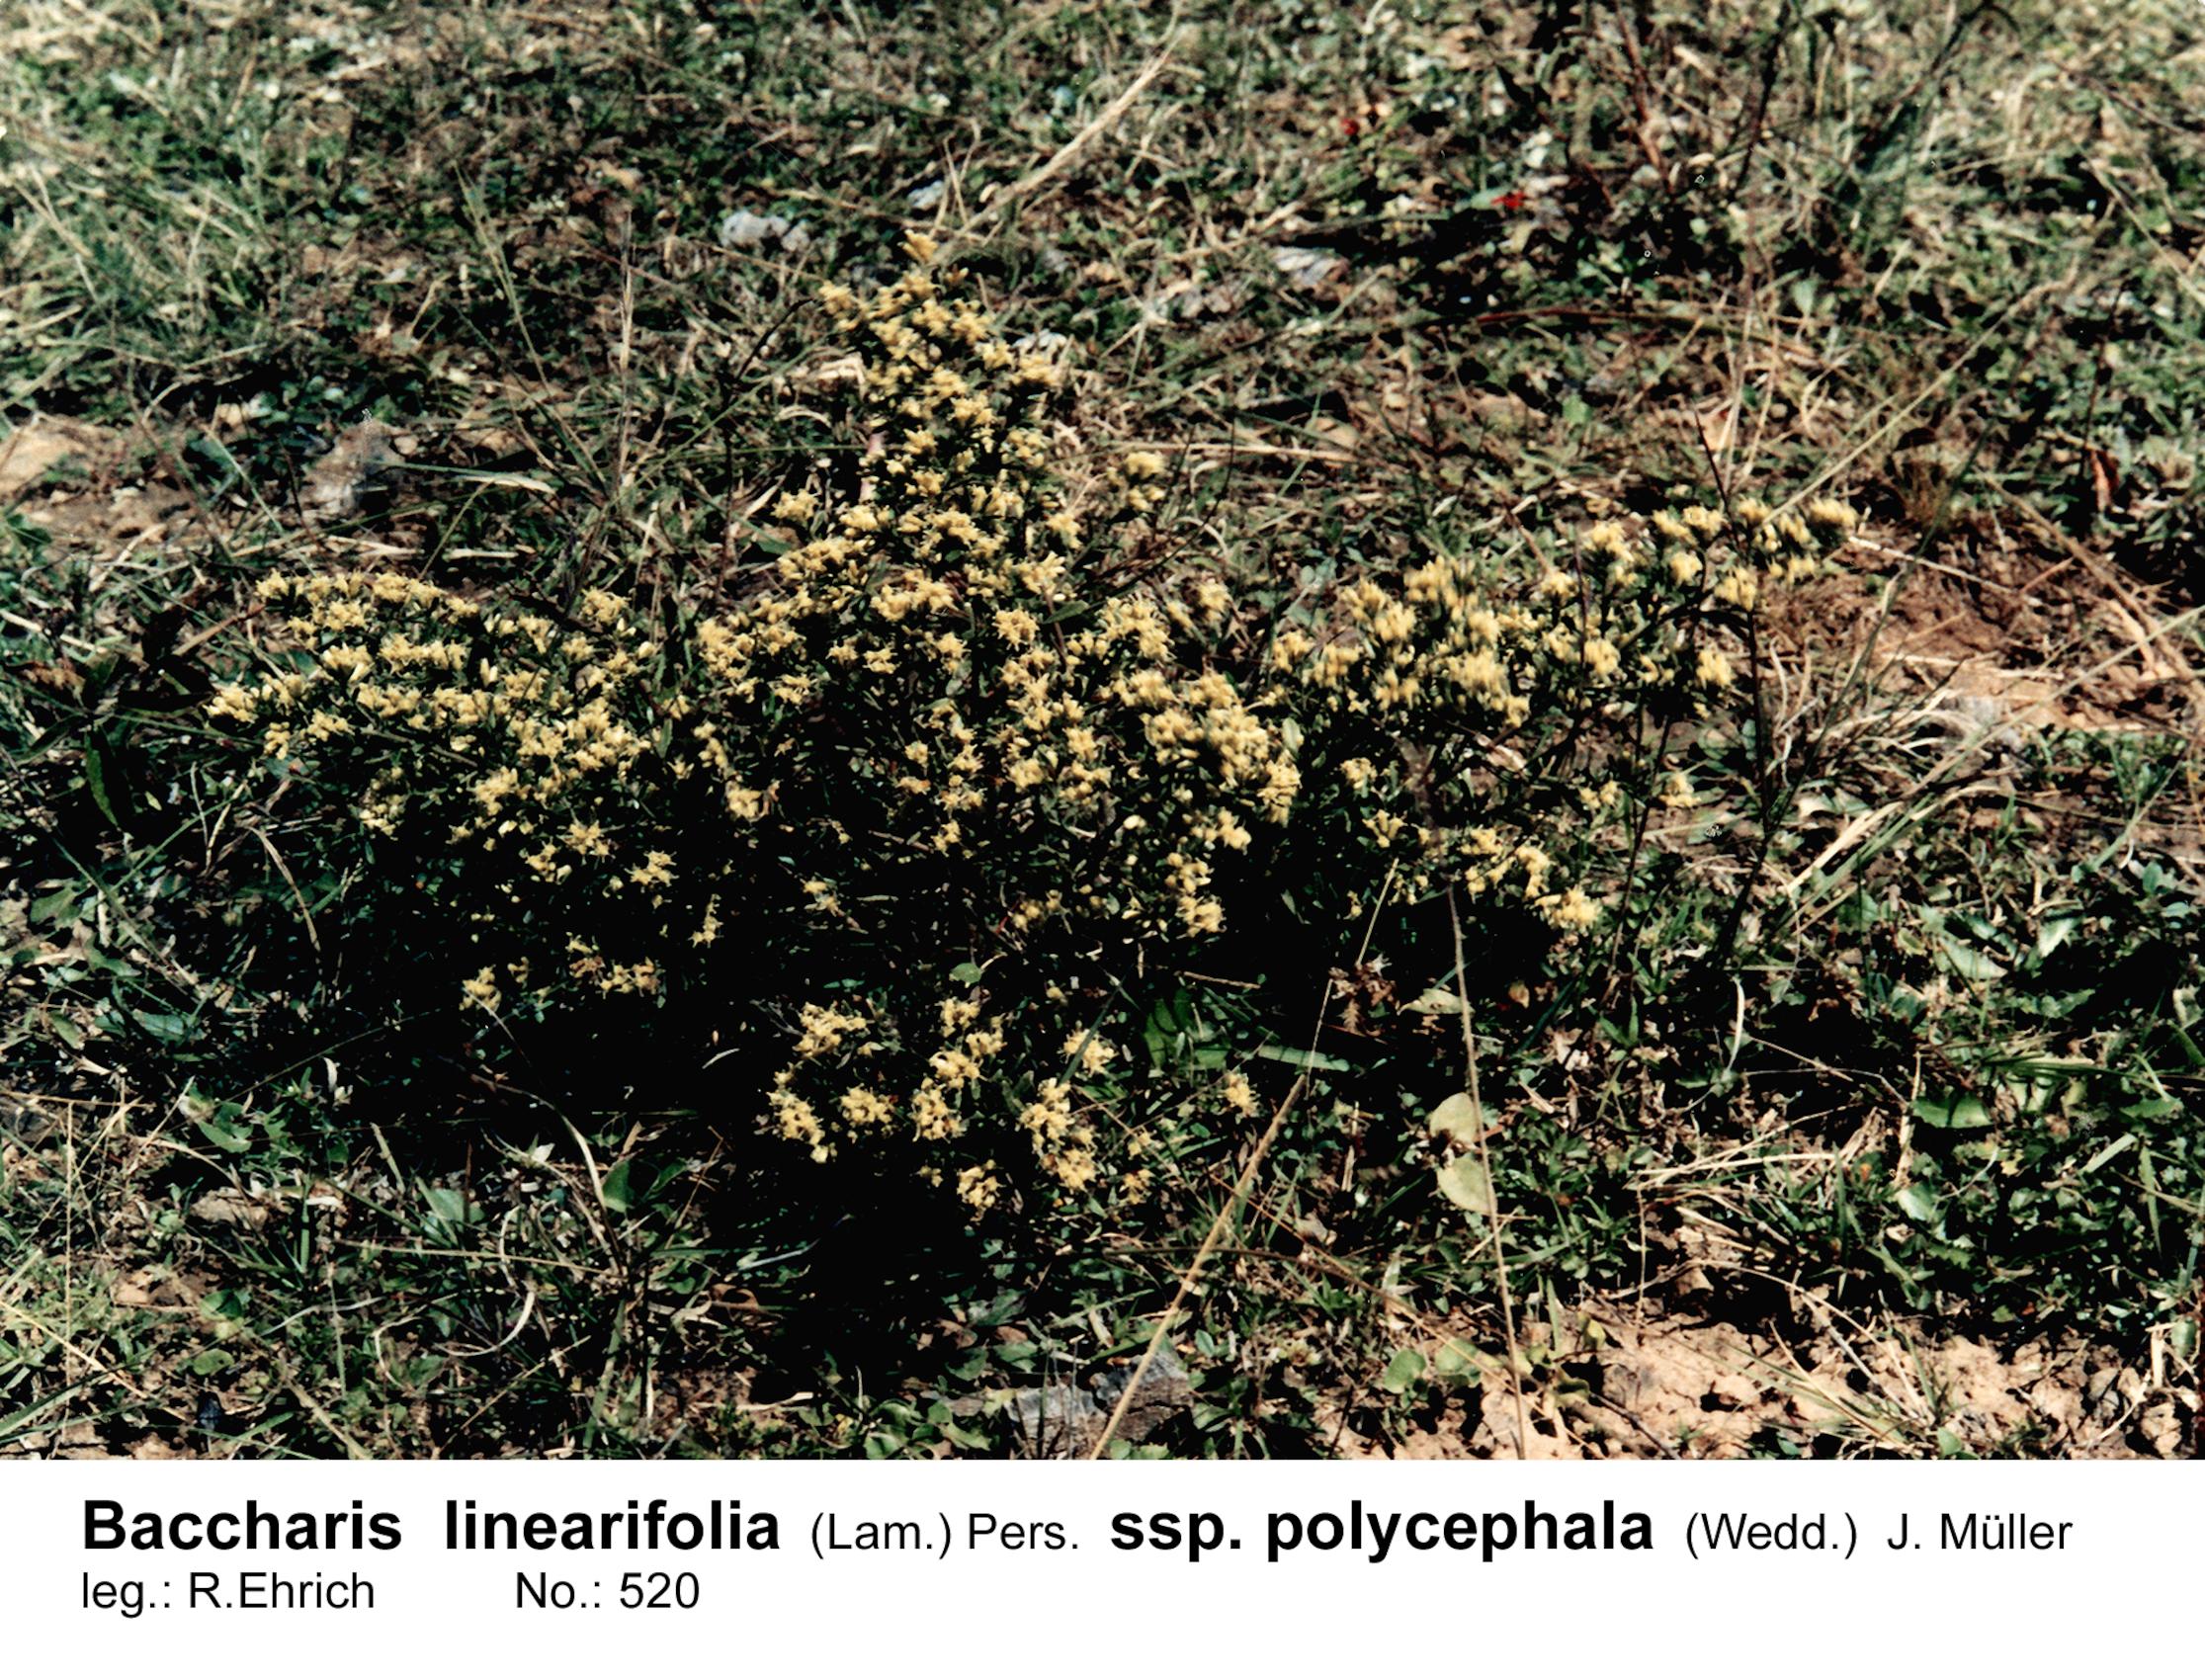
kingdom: Plantae
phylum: Tracheophyta
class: Magnoliopsida
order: Asterales
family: Asteraceae
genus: Baccharis
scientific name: Baccharis linearifolia
